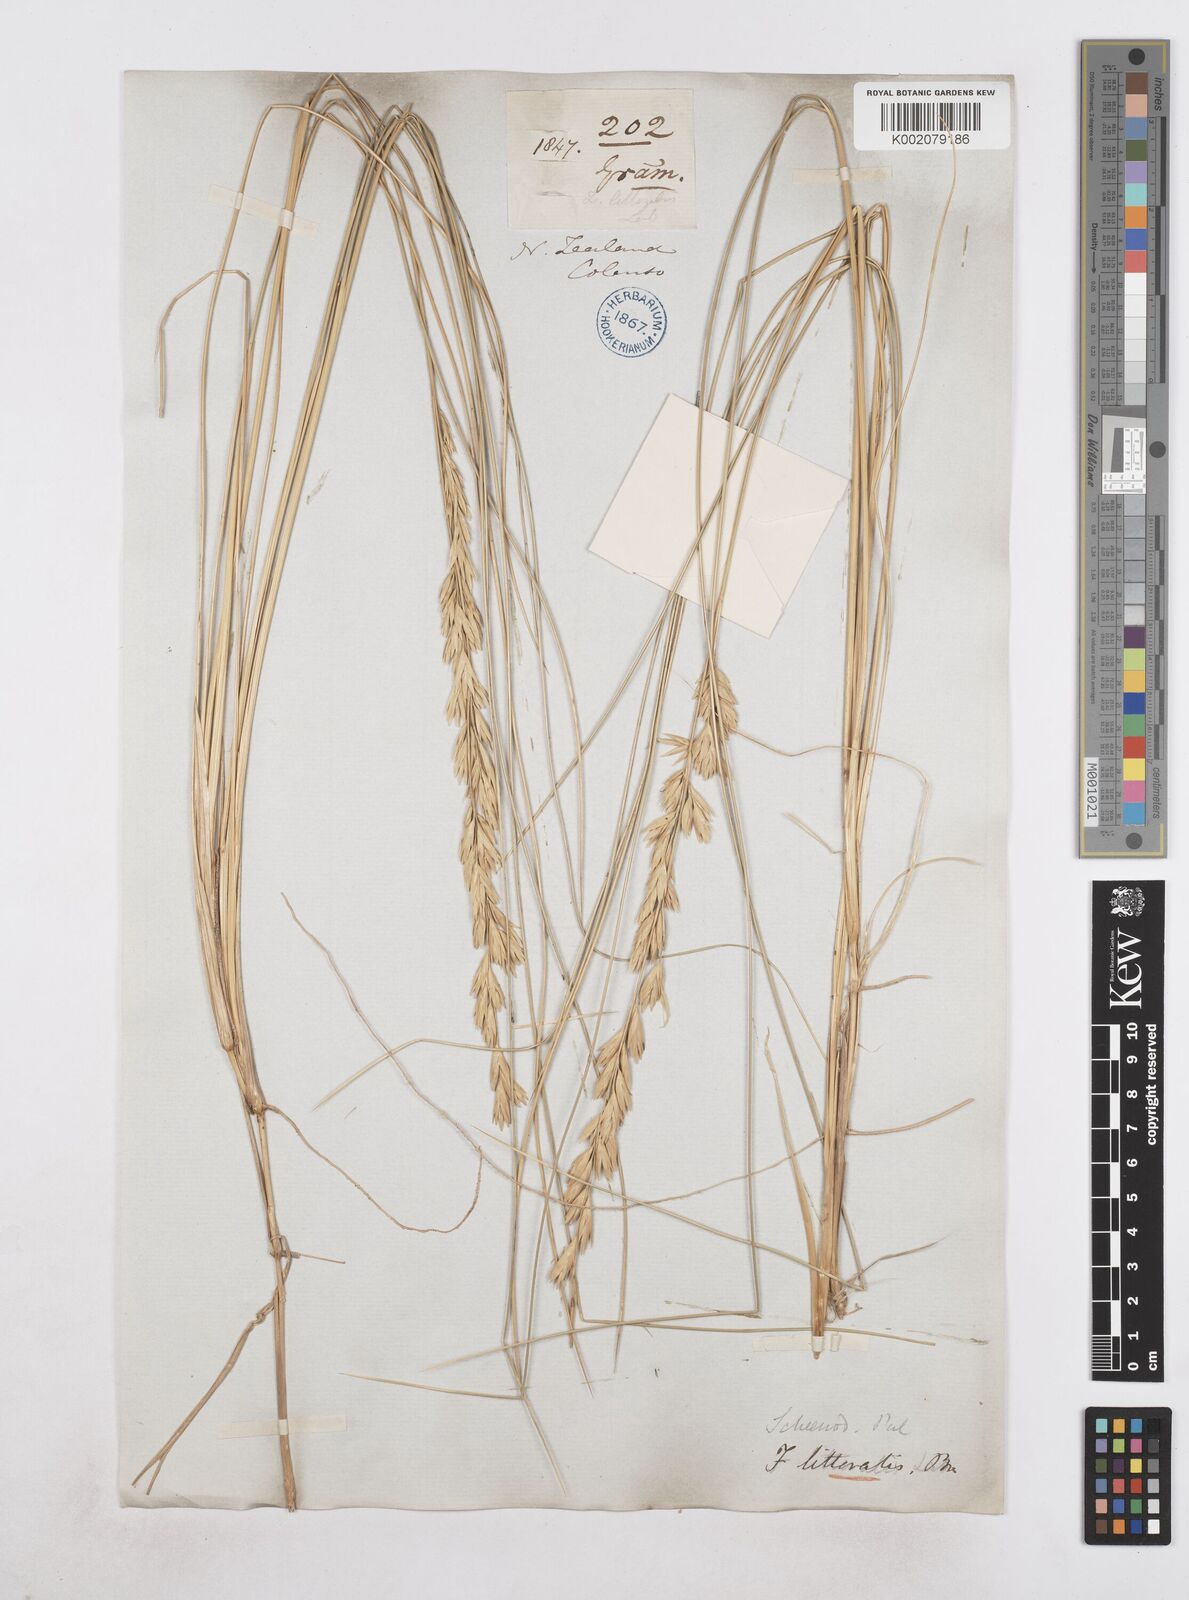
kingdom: Plantae
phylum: Tracheophyta
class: Liliopsida
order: Poales
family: Poaceae
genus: Poa
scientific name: Poa triodioides
